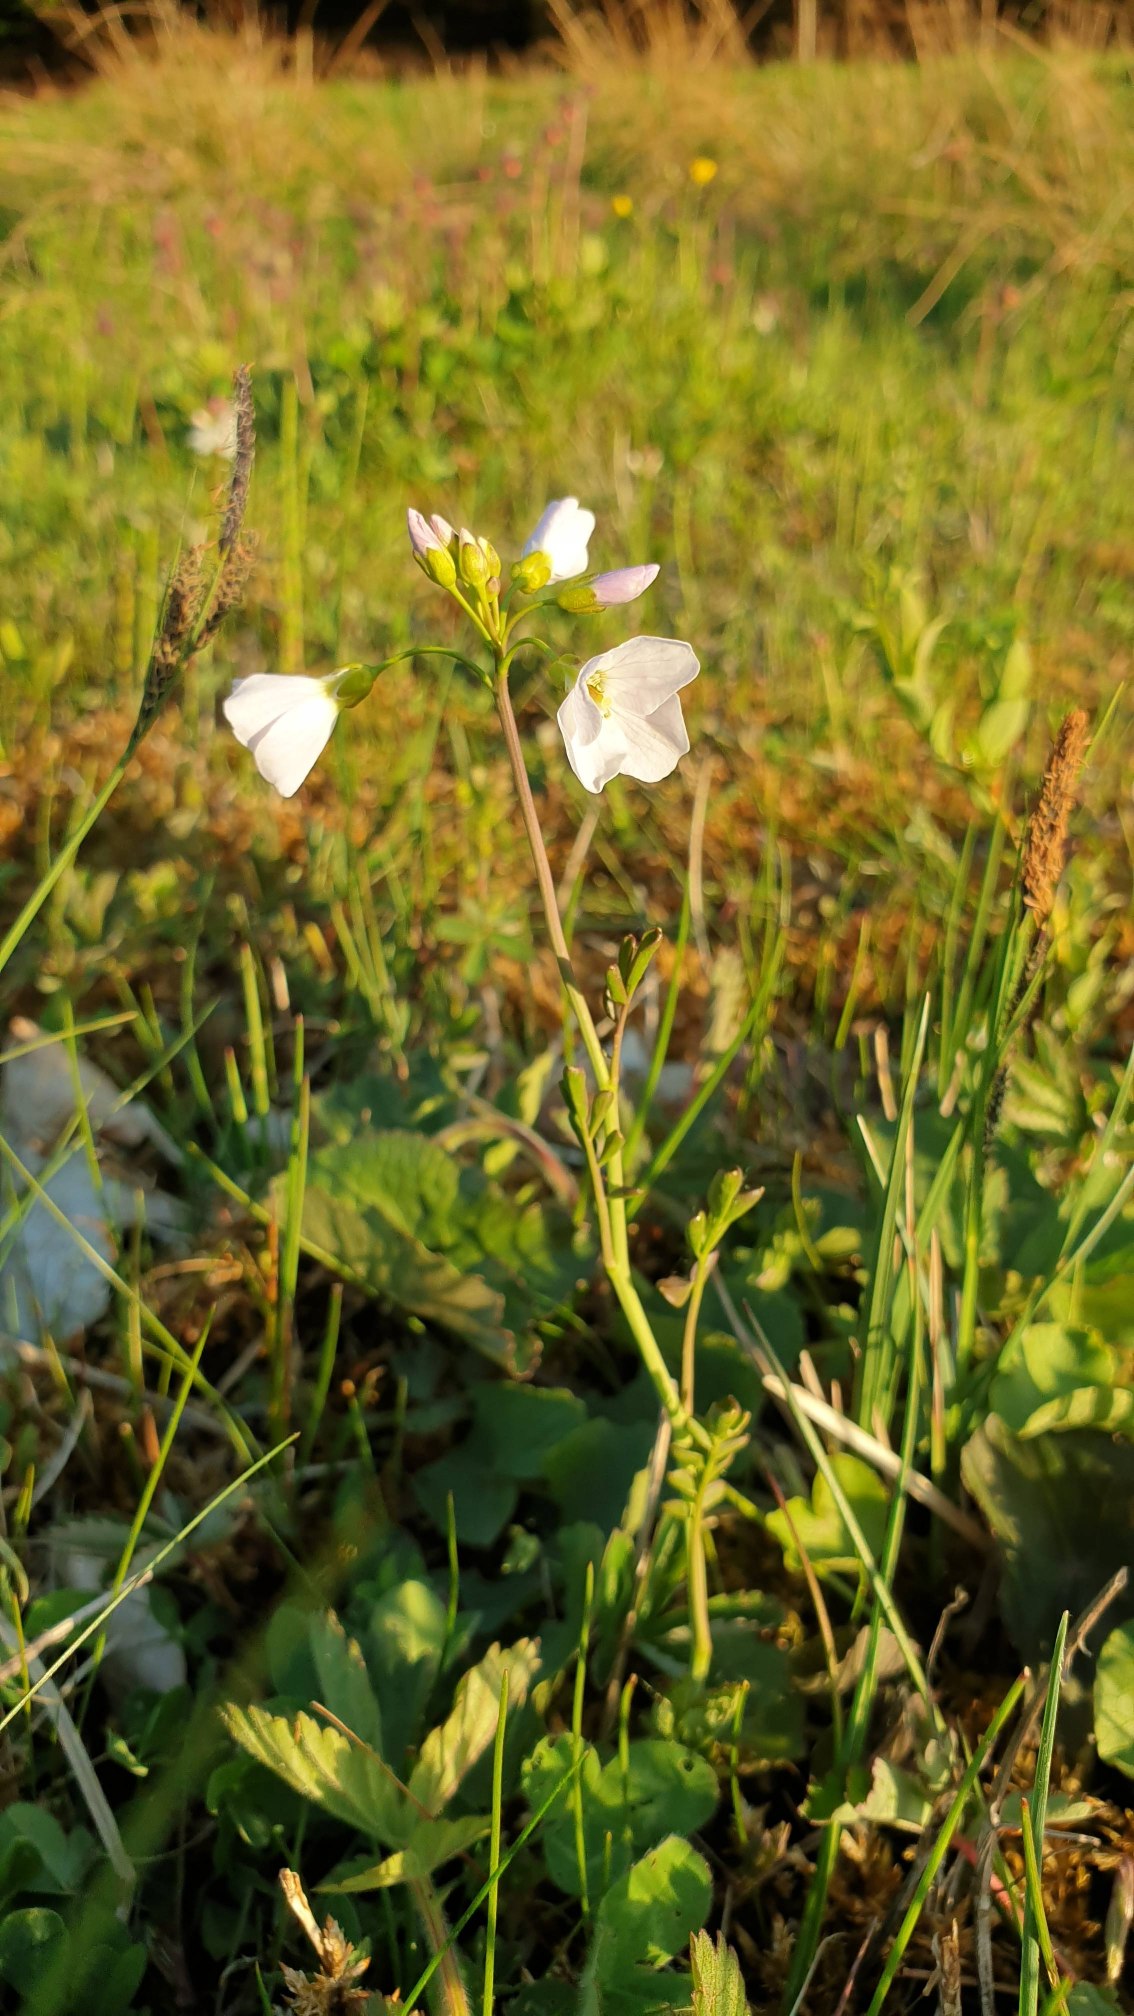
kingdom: Plantae
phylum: Tracheophyta
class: Magnoliopsida
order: Brassicales
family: Brassicaceae
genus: Cardamine
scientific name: Cardamine pratensis
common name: Engkarse
